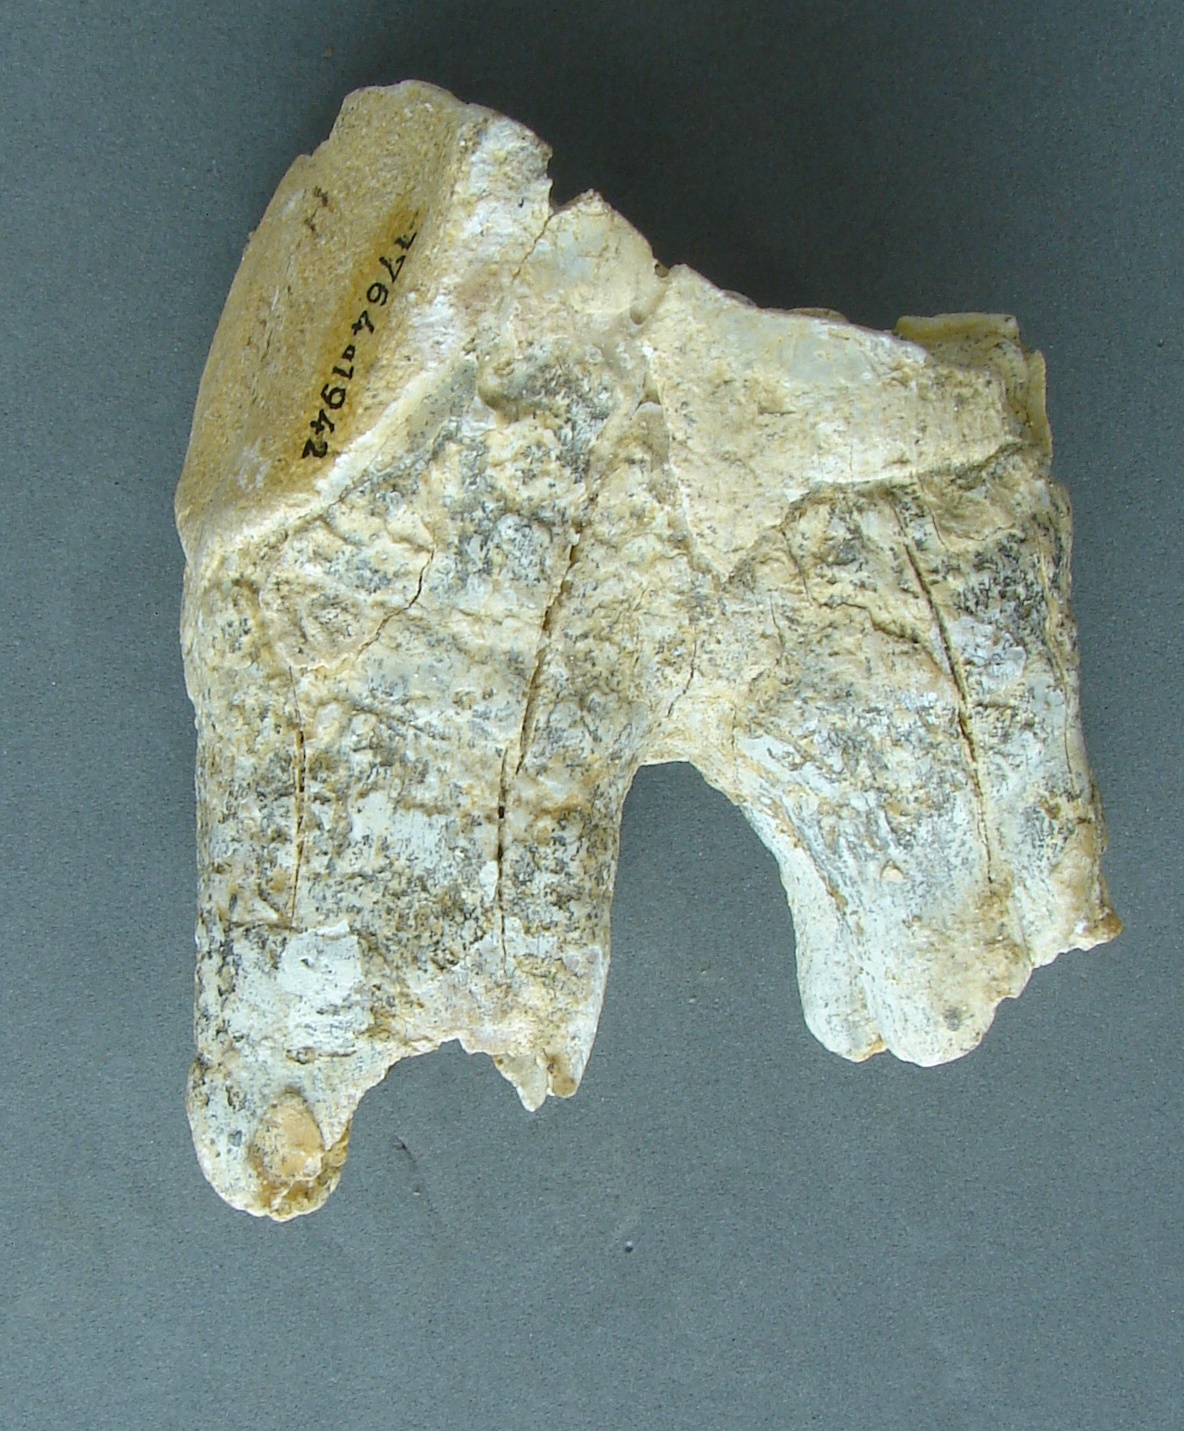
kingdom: Animalia
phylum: Chordata
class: Mammalia
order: Perissodactyla
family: Rhinocerotidae
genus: Rhinoceros
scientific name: Rhinoceros
